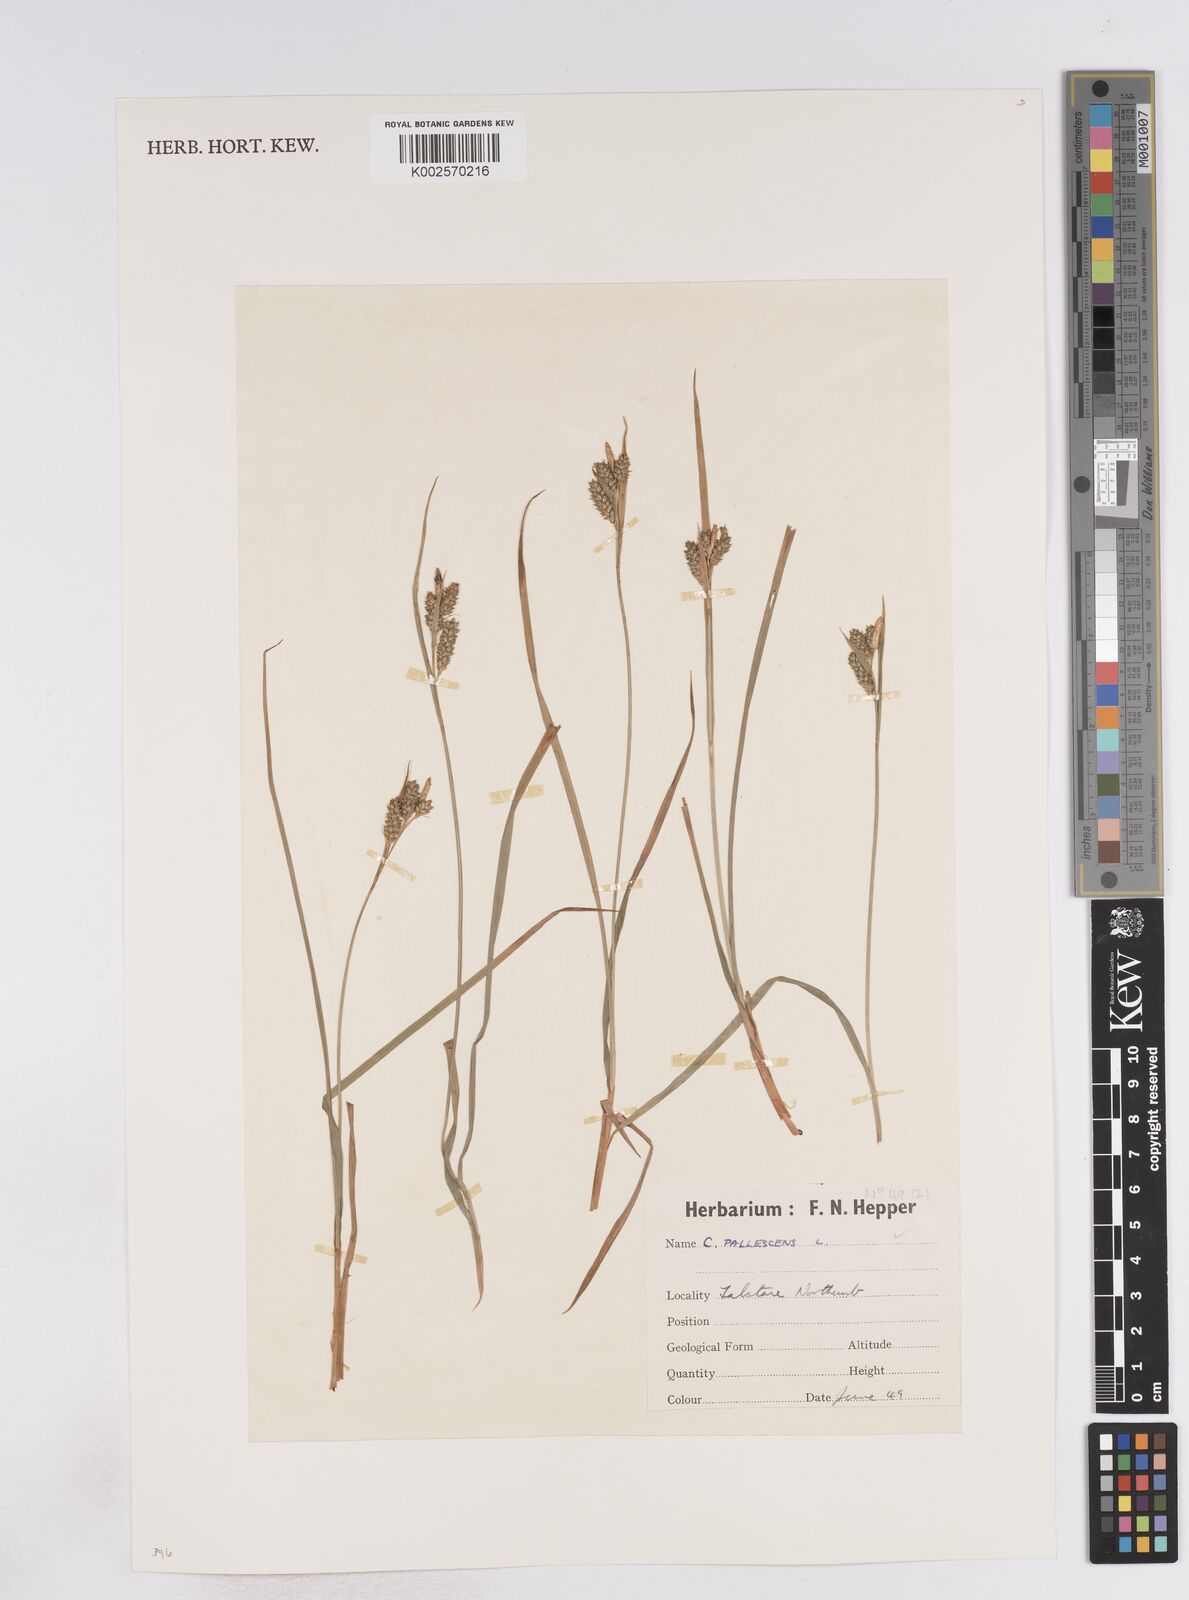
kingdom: Plantae
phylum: Tracheophyta
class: Liliopsida
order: Poales
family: Cyperaceae
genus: Carex
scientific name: Carex pallescens
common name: Pale sedge
